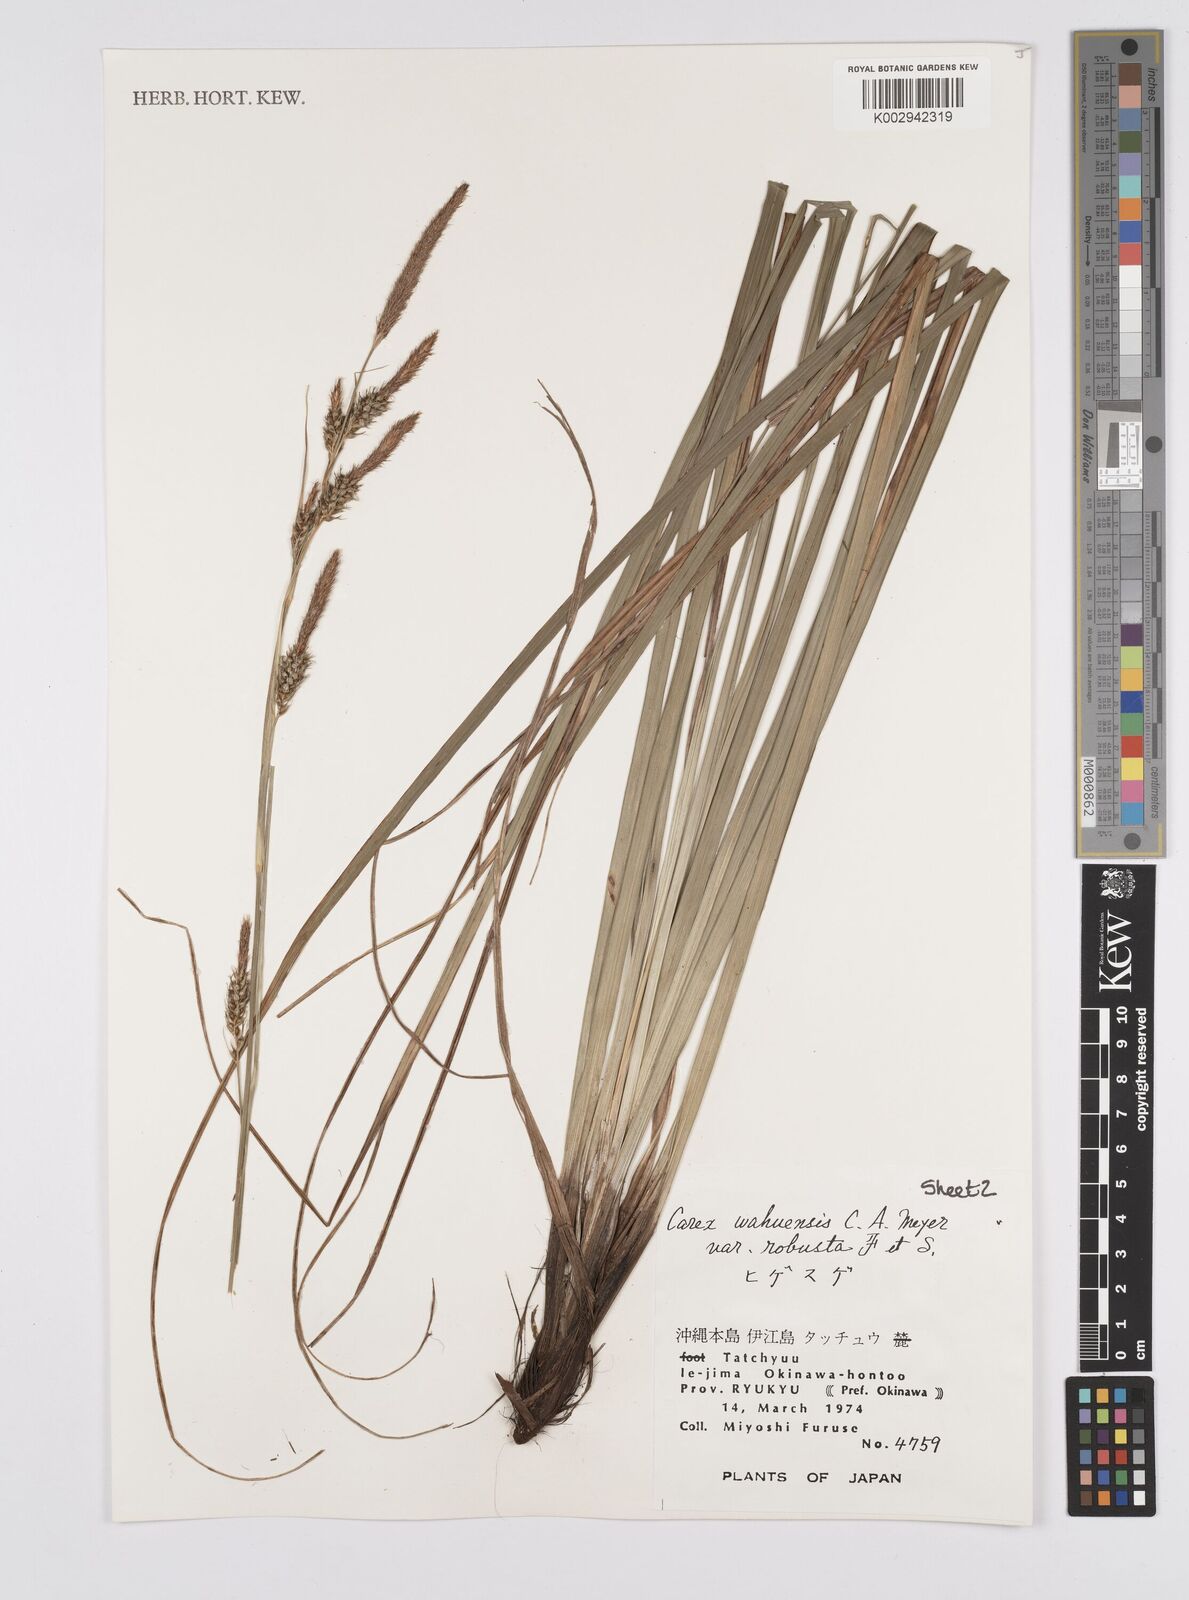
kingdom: Plantae
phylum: Tracheophyta
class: Liliopsida
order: Poales
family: Cyperaceae
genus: Carex
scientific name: Carex wahuensis
